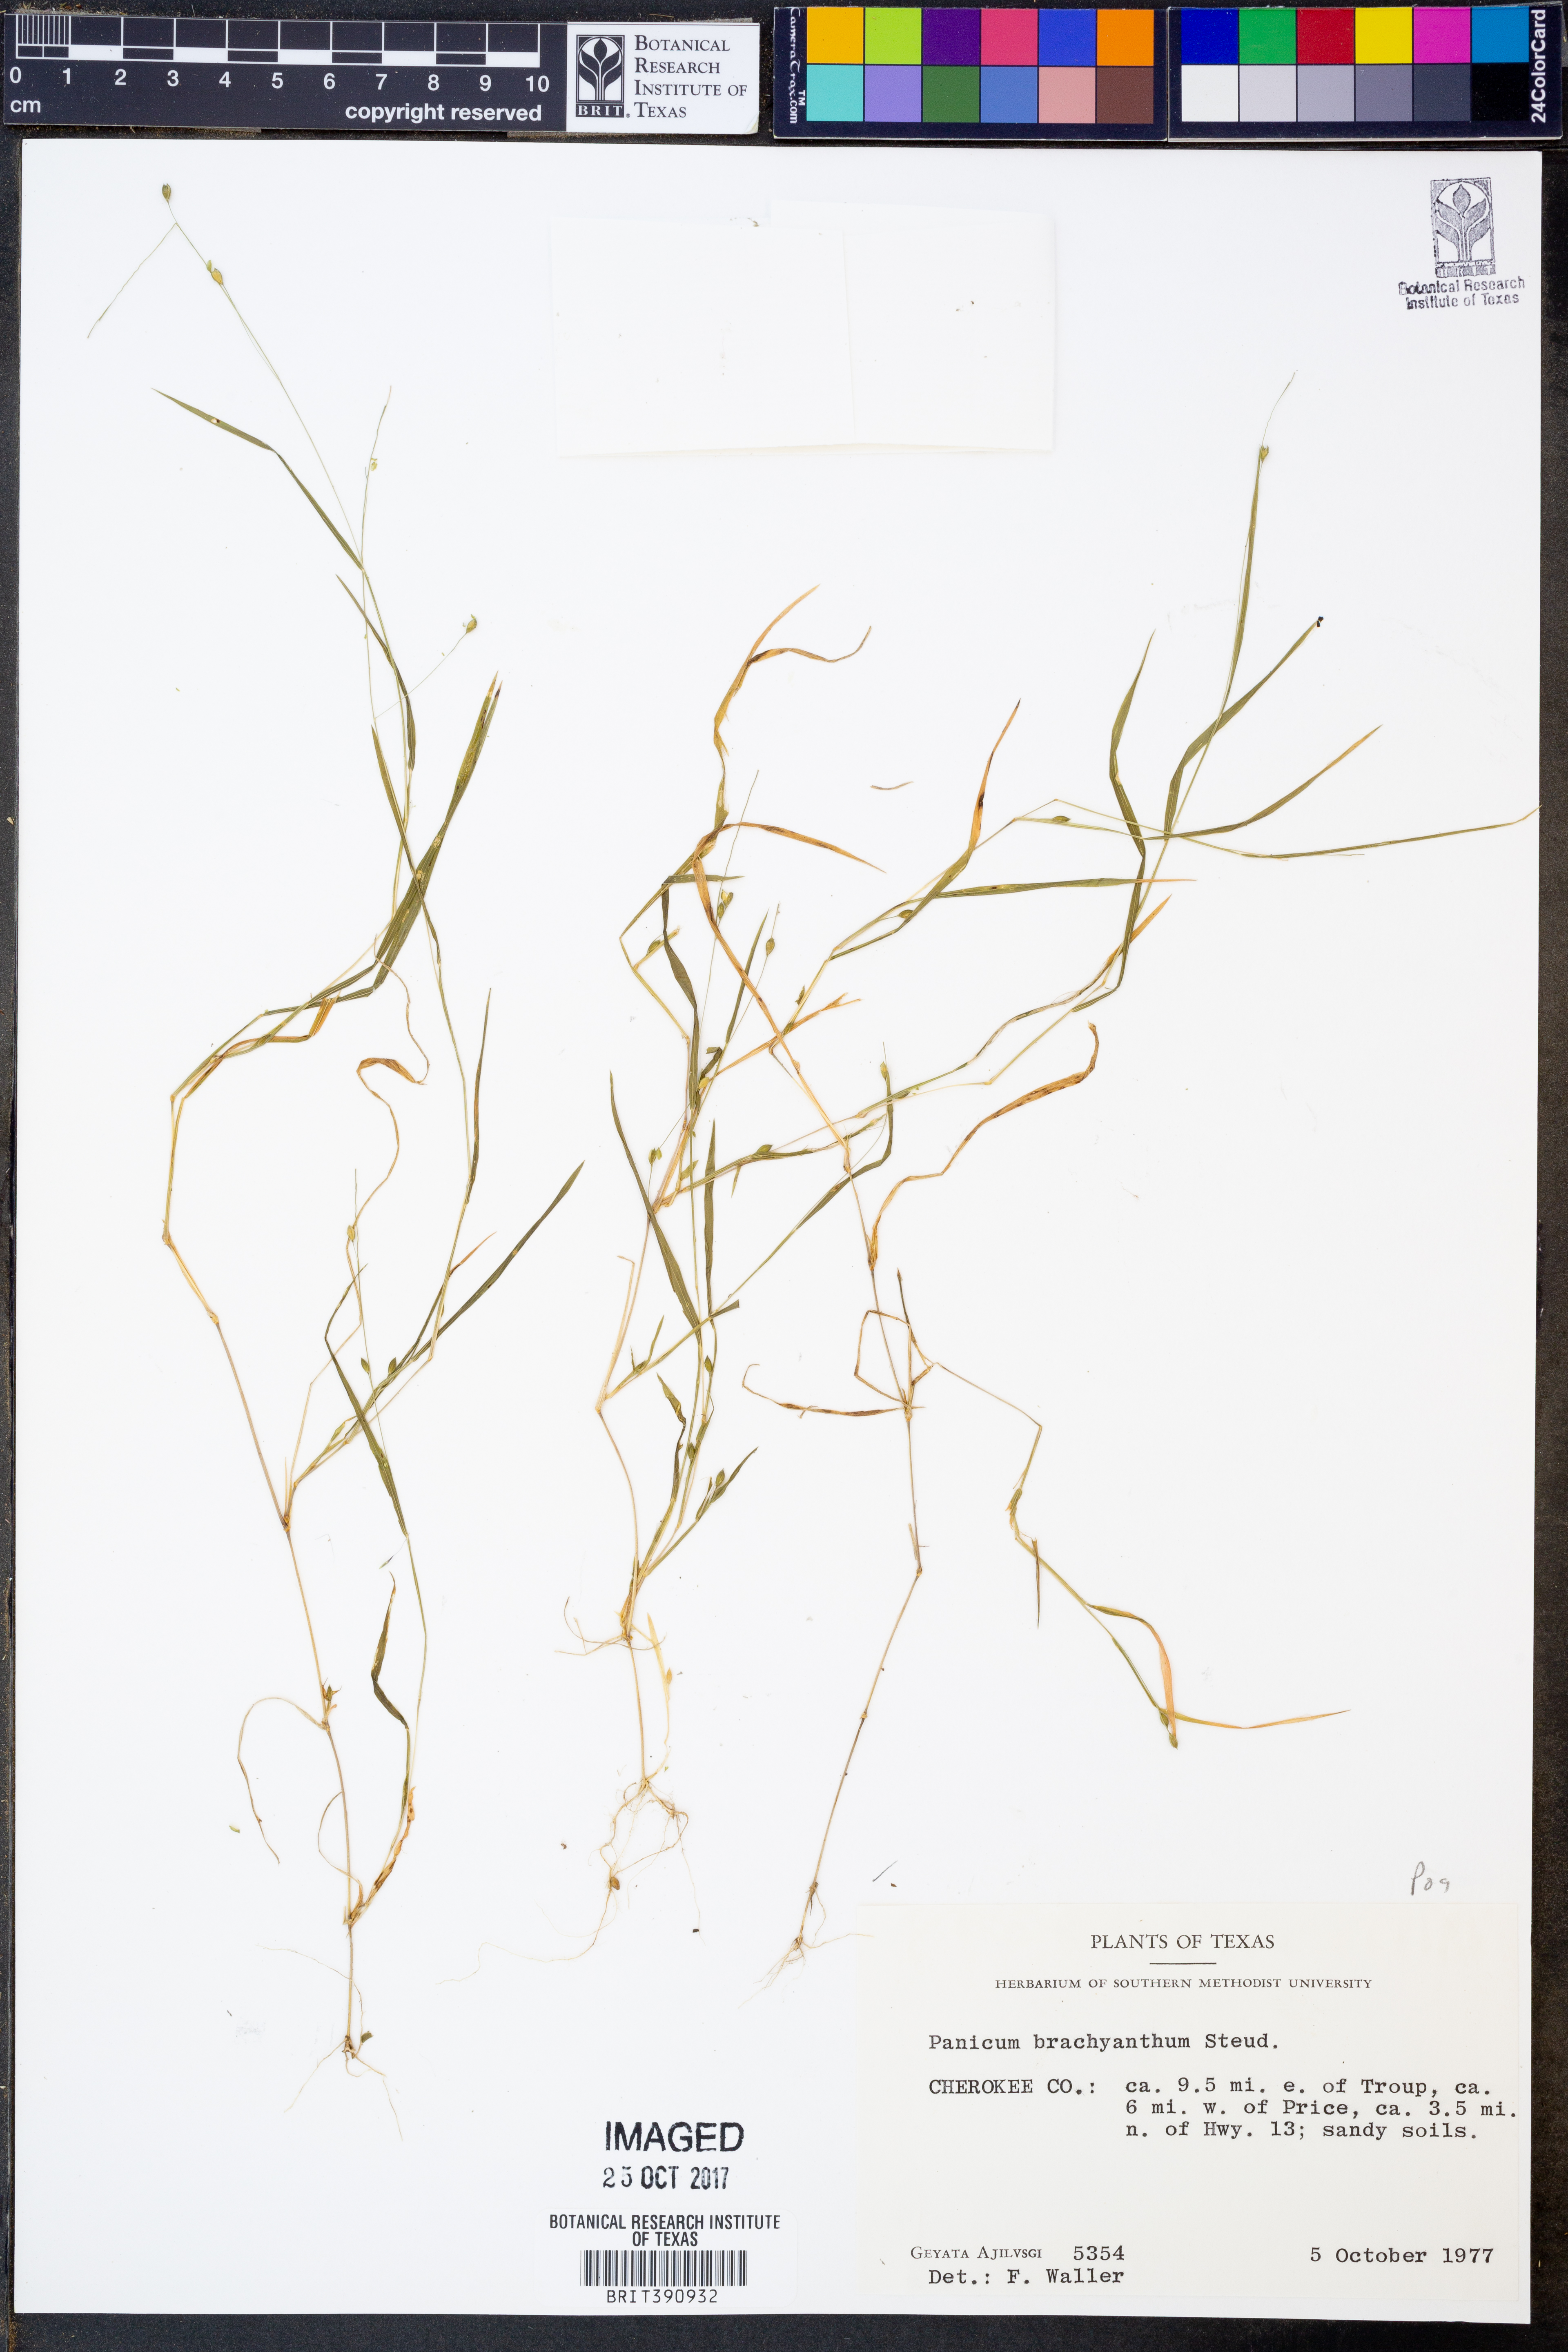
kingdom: Plantae
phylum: Tracheophyta
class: Liliopsida
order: Poales
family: Poaceae
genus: Kellochloa
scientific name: Kellochloa brachyantha
